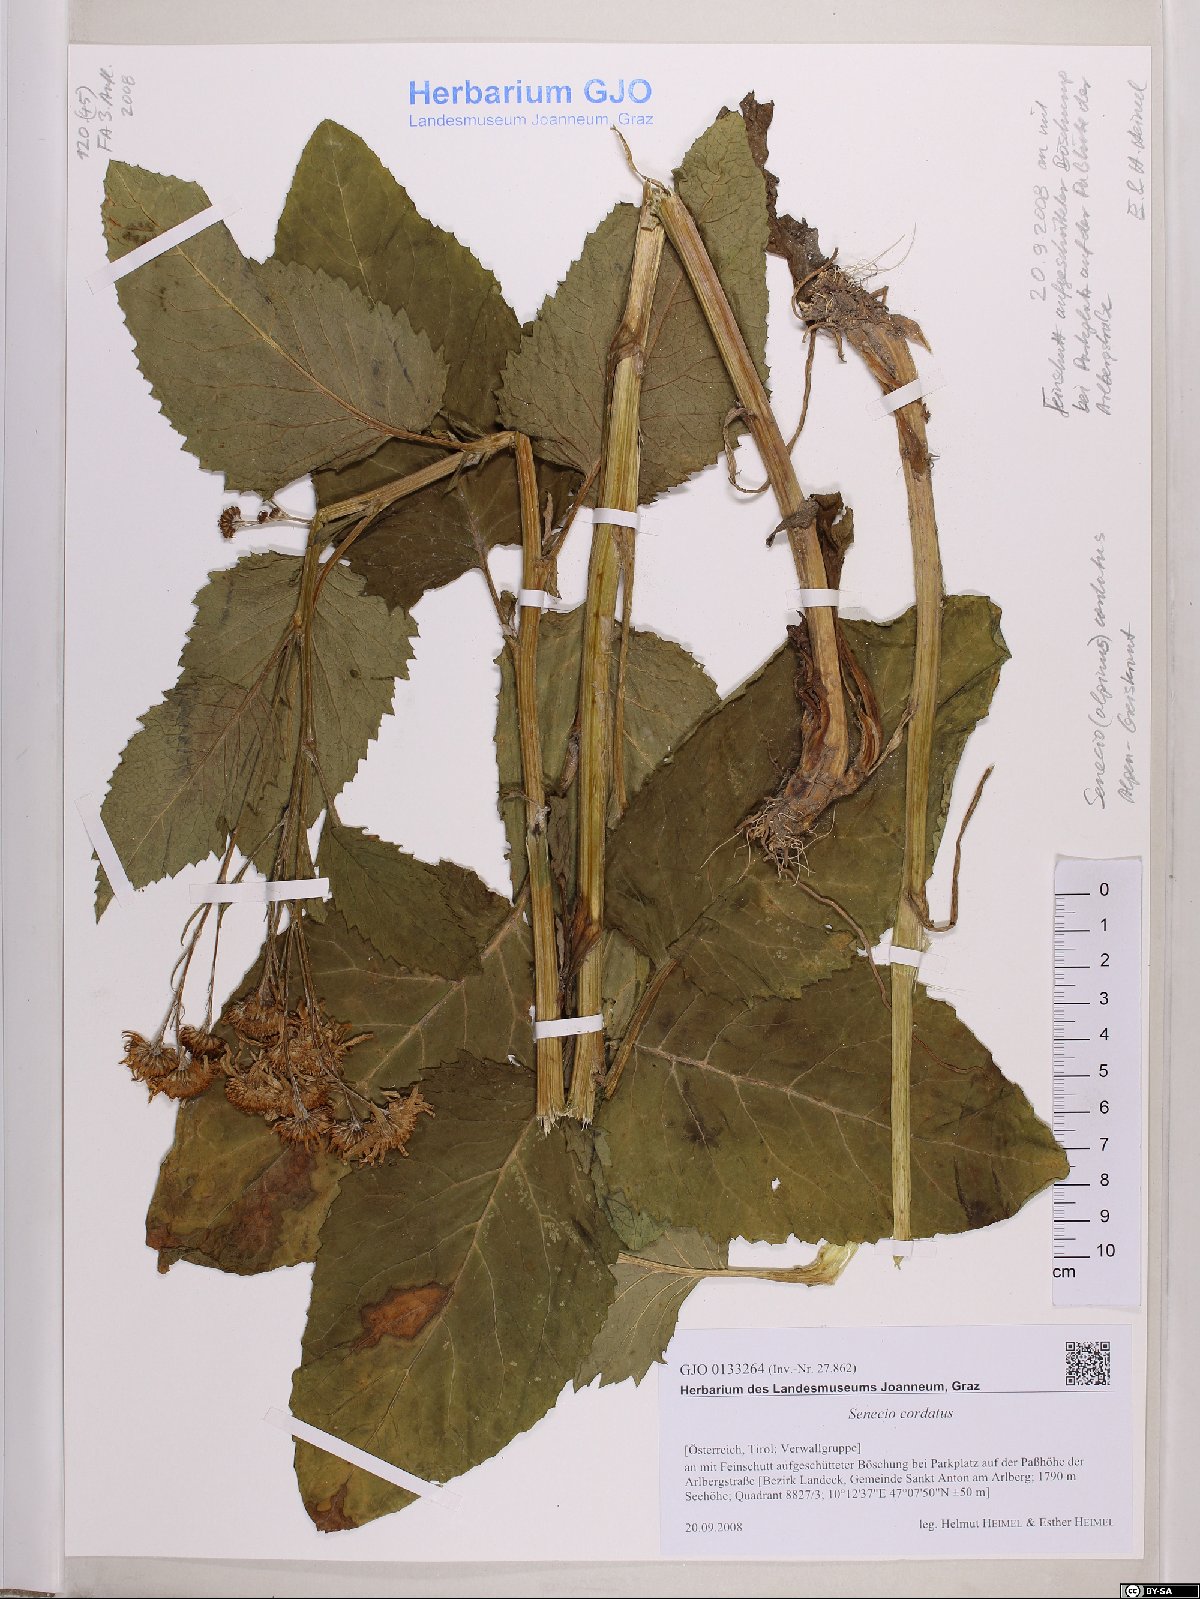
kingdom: Plantae
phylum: Tracheophyta
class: Magnoliopsida
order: Asterales
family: Asteraceae
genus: Jacobaea
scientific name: Jacobaea alpina
